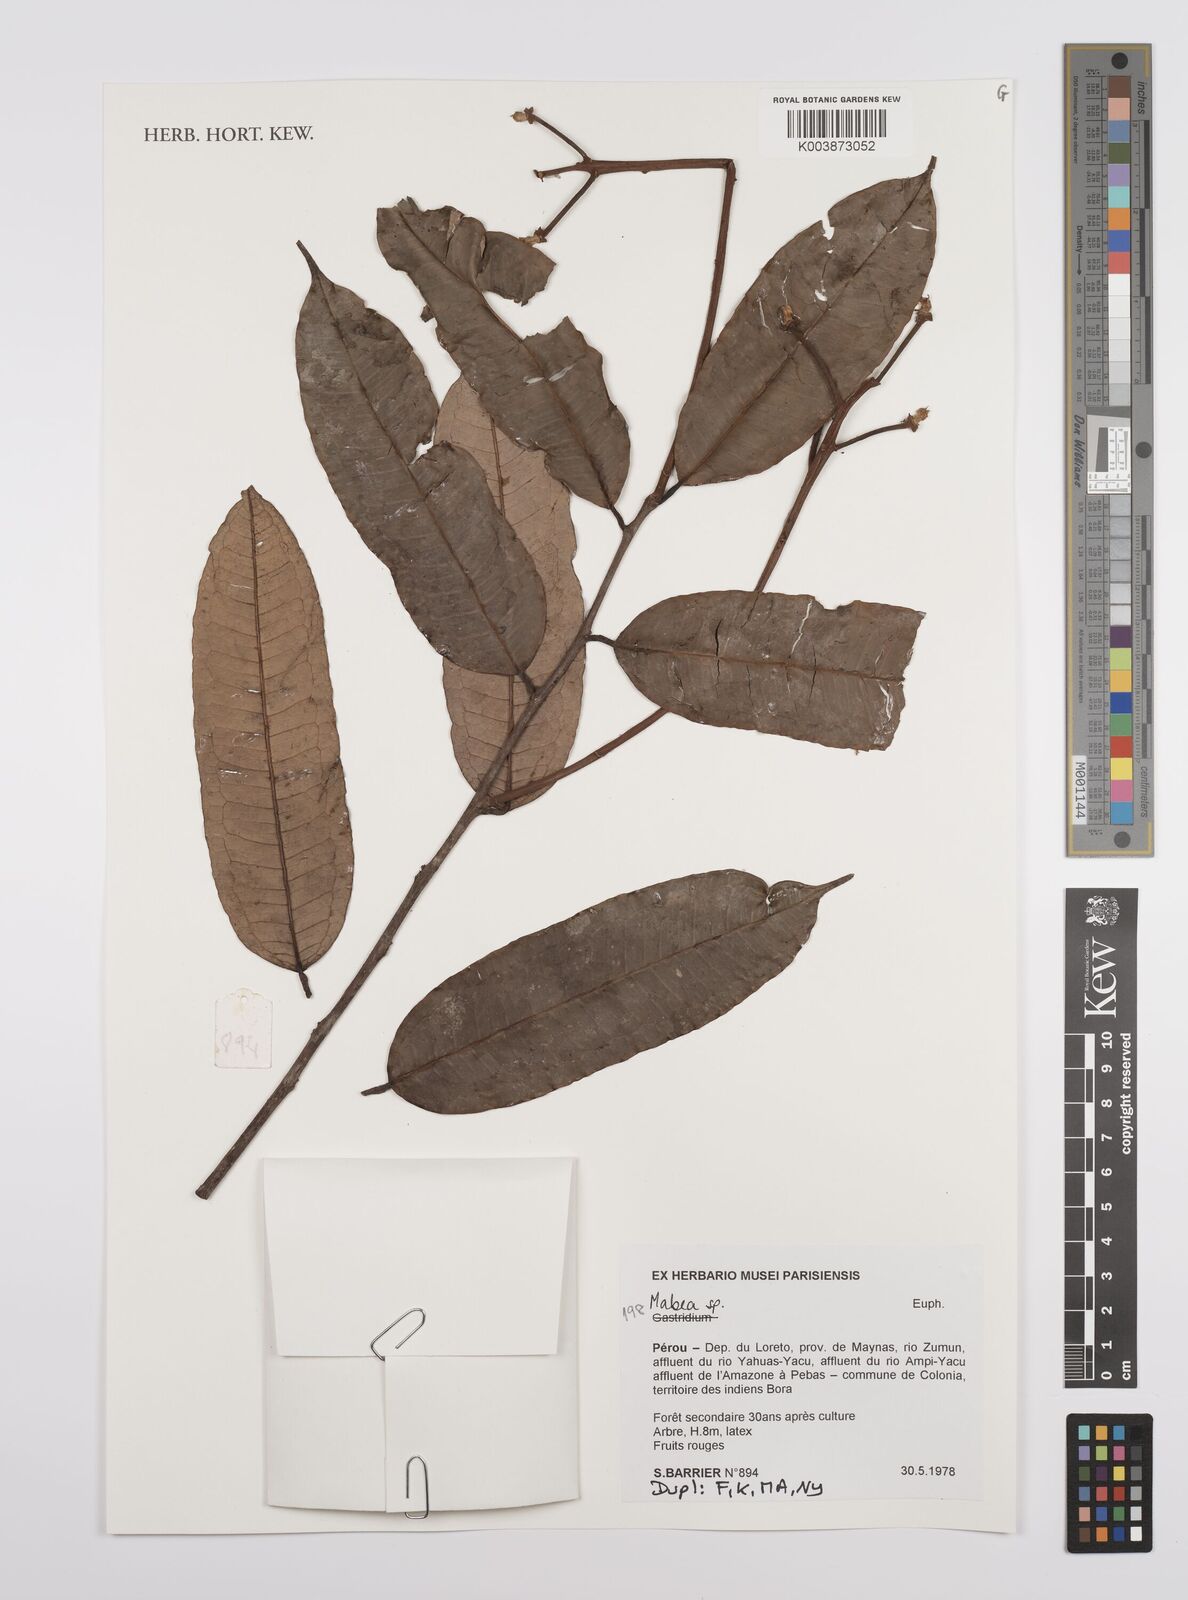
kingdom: Plantae
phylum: Tracheophyta
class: Magnoliopsida
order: Malpighiales
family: Euphorbiaceae
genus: Mabea
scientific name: Mabea
